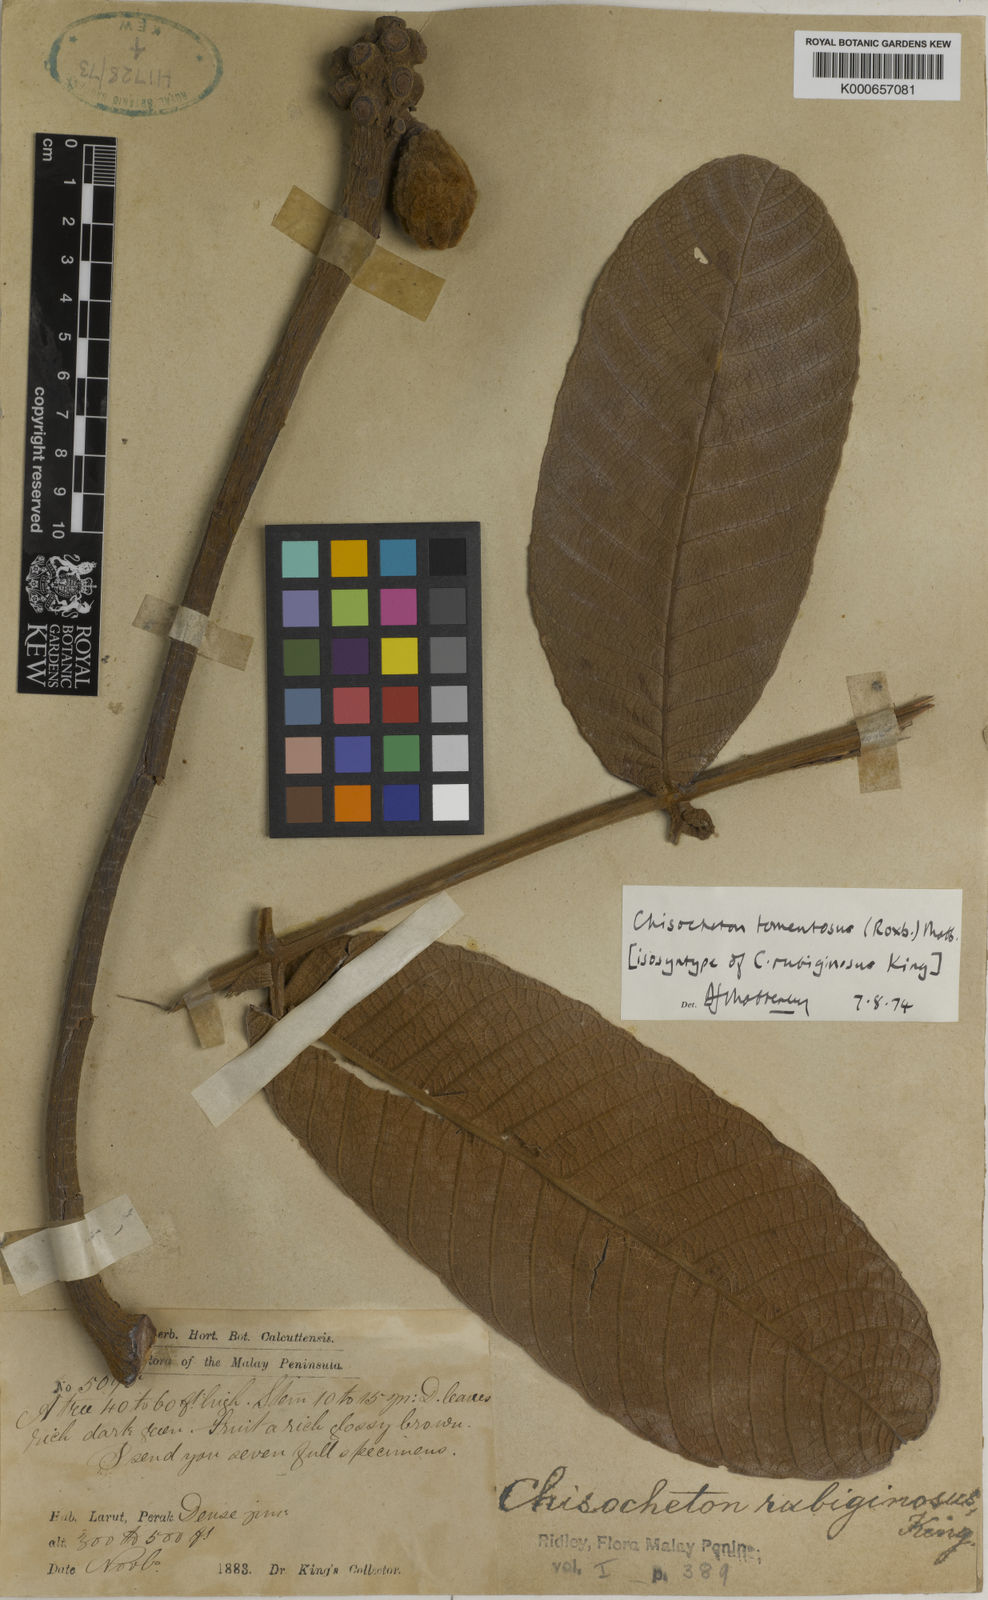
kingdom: Plantae
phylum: Tracheophyta
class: Magnoliopsida
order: Sapindales
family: Meliaceae
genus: Chisocheton
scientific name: Chisocheton tomentosus
